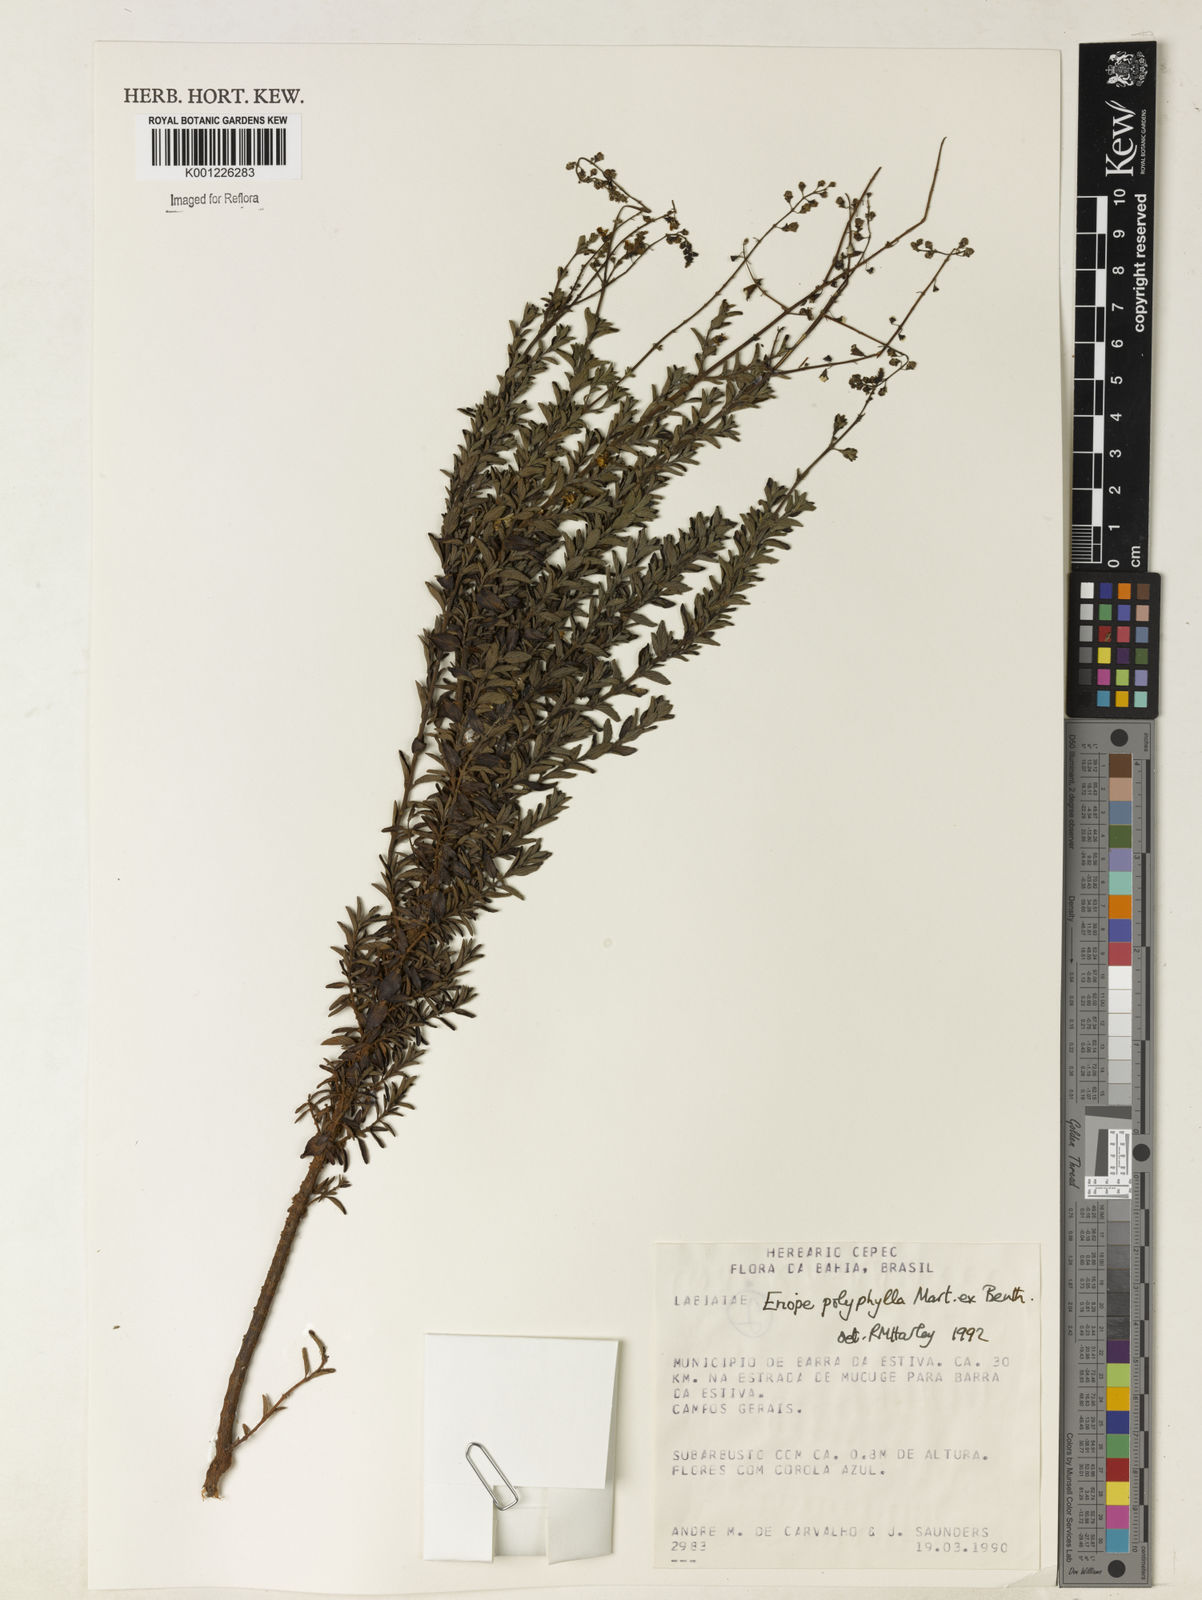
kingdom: Plantae
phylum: Tracheophyta
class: Magnoliopsida
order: Lamiales
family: Lamiaceae
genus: Eriope
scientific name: Eriope polyphylla
